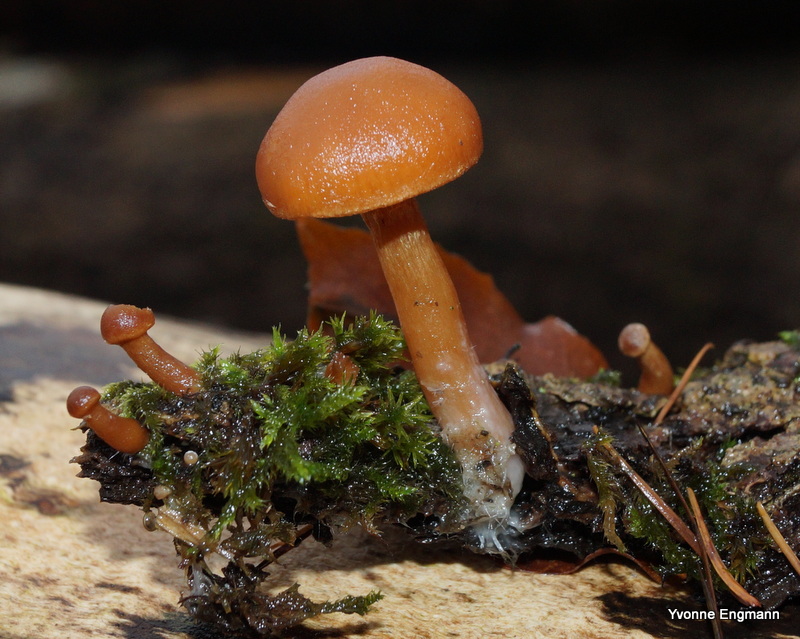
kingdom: Fungi
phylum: Basidiomycota
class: Agaricomycetes
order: Agaricales
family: Tubariaceae
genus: Tubaria
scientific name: Tubaria furfuracea
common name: kliddet fnughat
